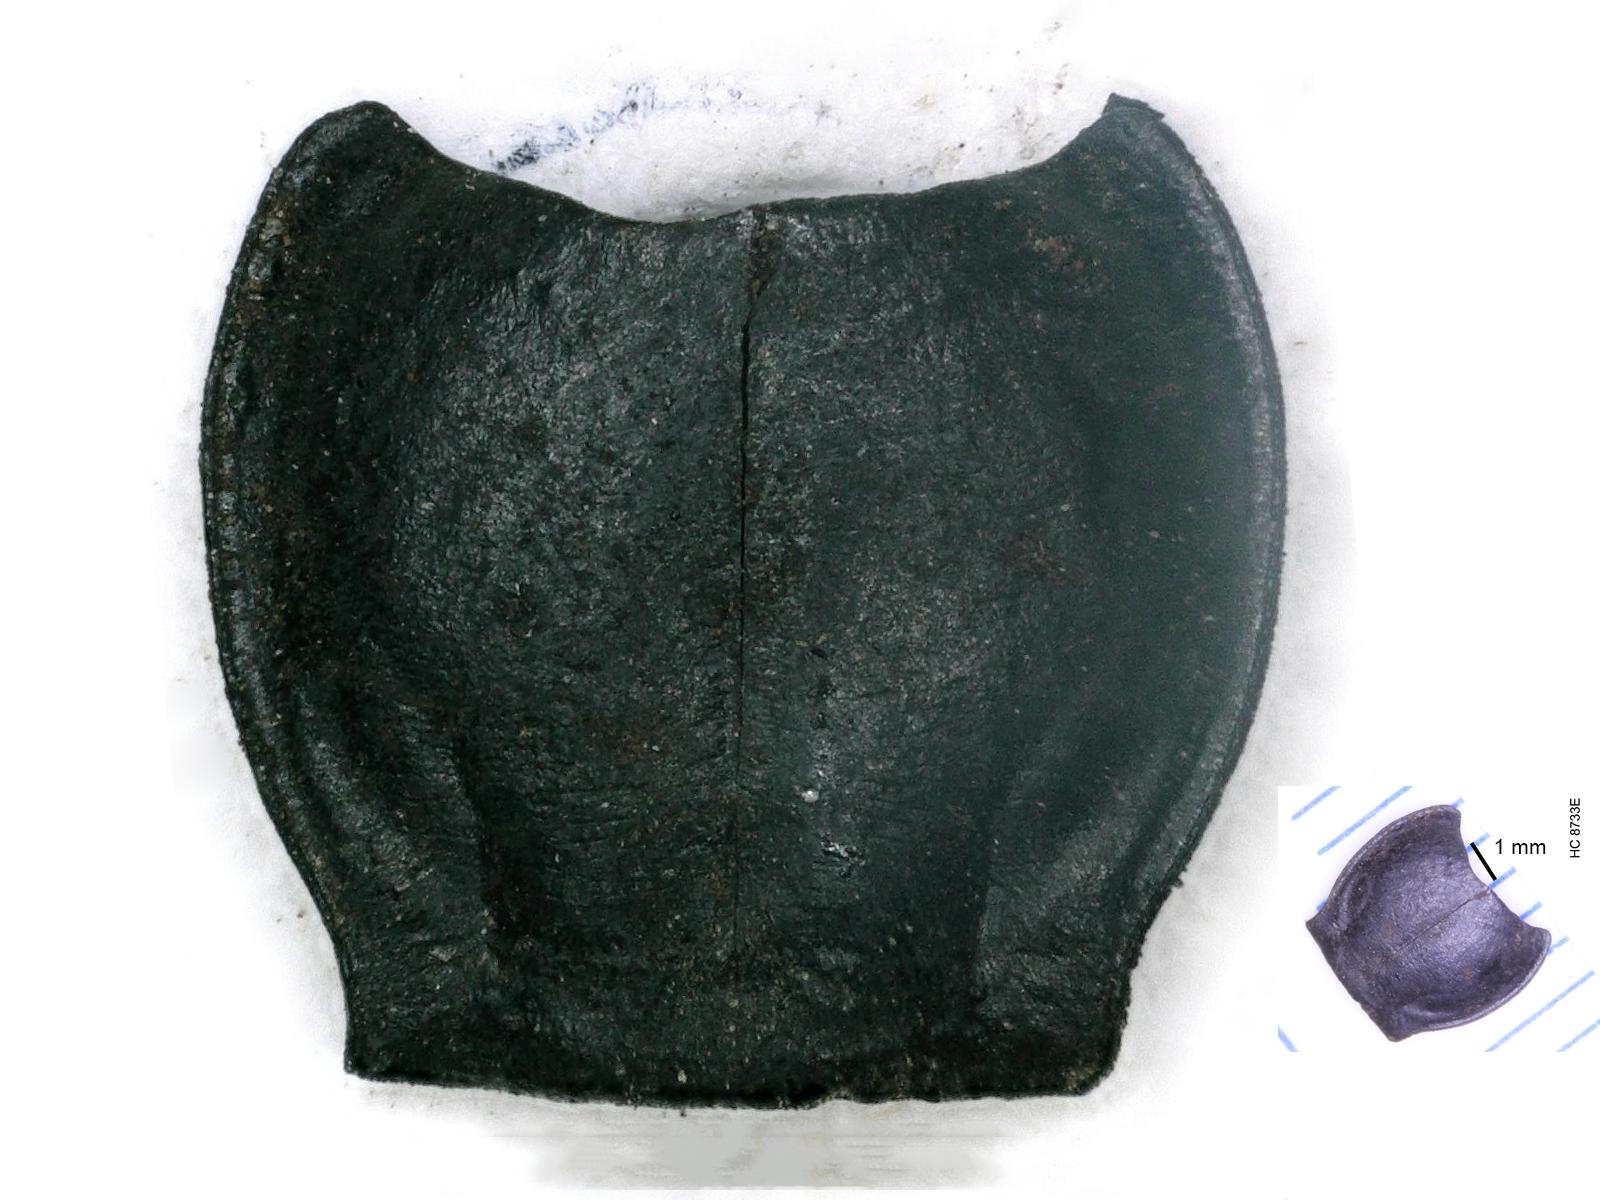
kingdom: Animalia
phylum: Arthropoda
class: Insecta
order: Coleoptera
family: Carabidae
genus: Pterostichus
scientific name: Pterostichus illustris
